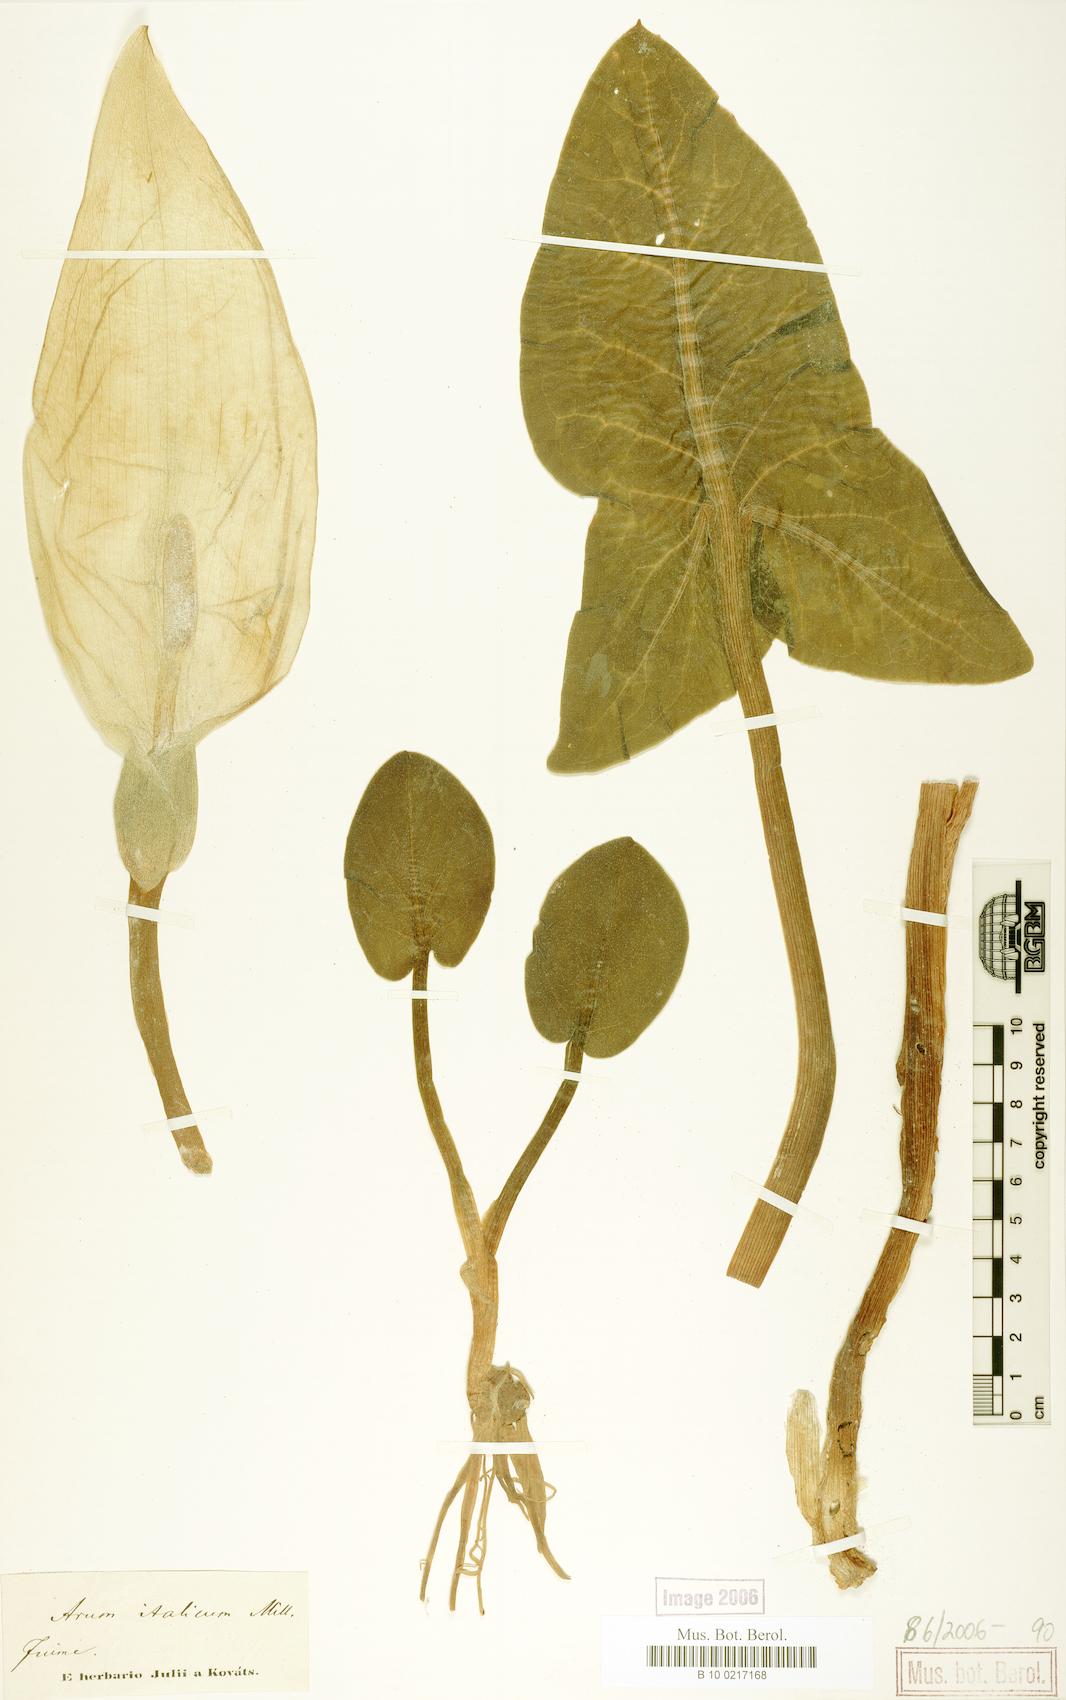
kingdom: Plantae
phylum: Tracheophyta
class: Liliopsida
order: Alismatales
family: Araceae
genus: Arum
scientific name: Arum italicum
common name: Italian lords-and-ladies
